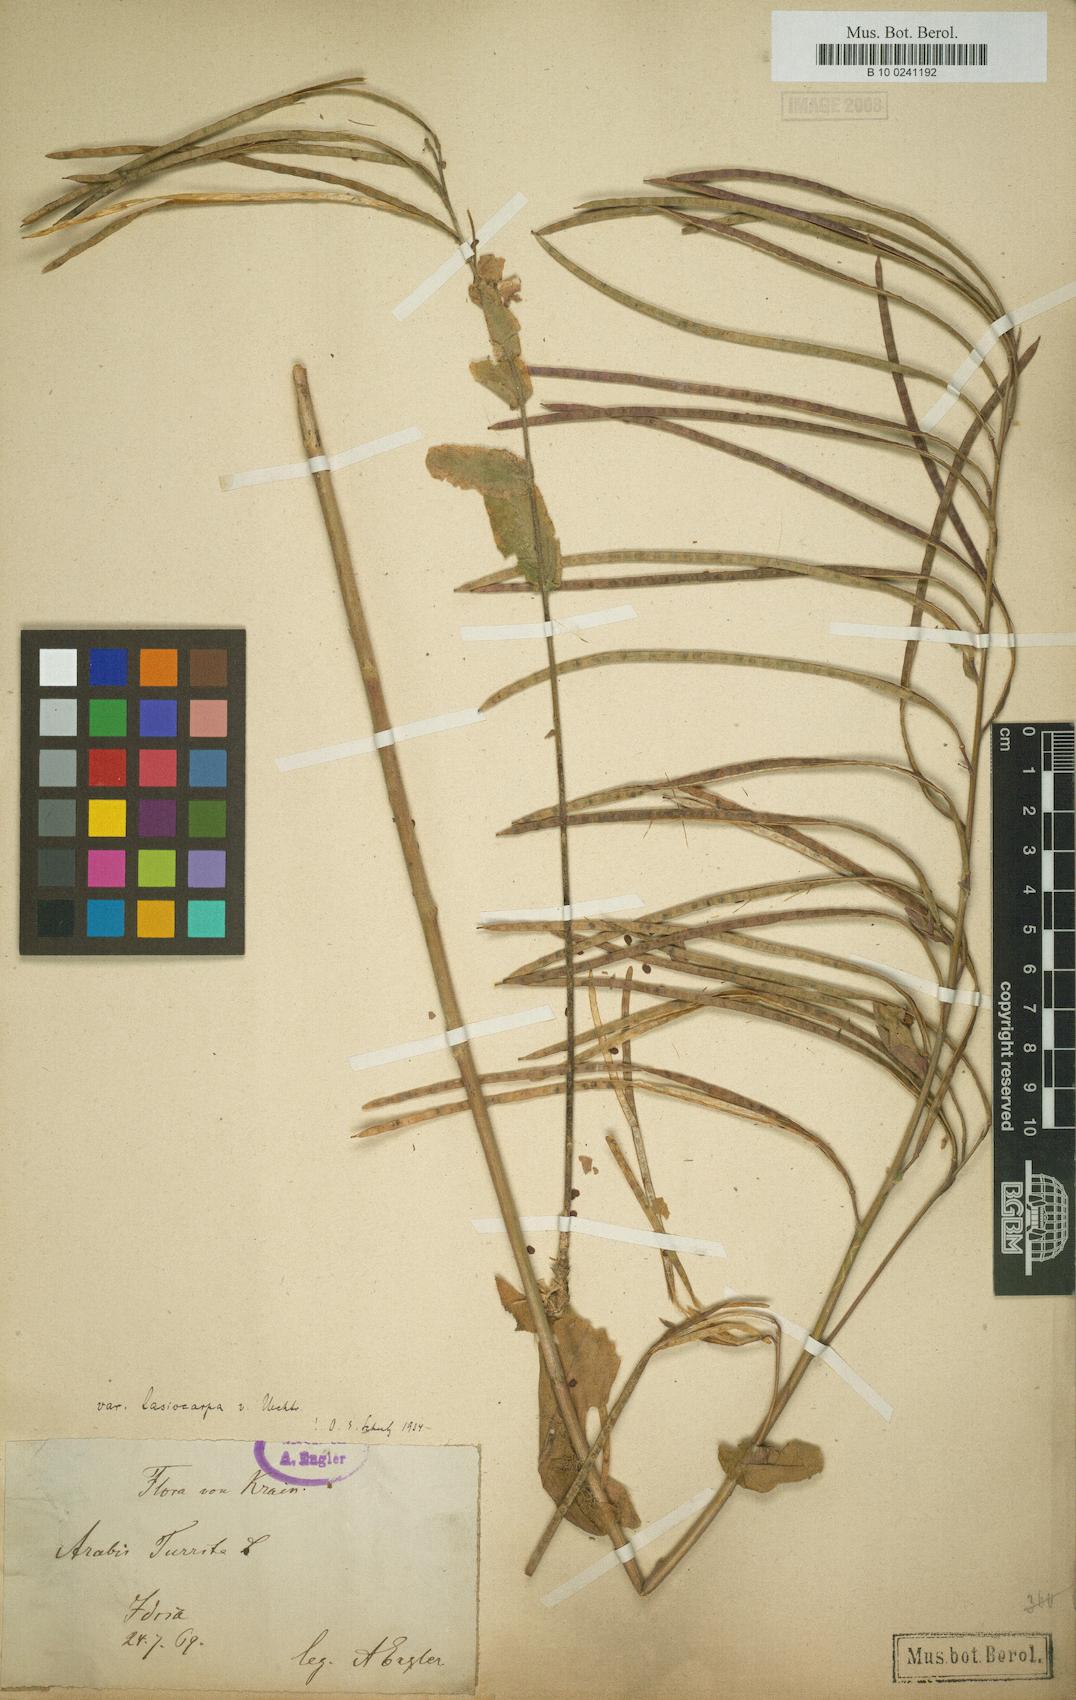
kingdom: Plantae
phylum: Tracheophyta
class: Magnoliopsida
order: Brassicales
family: Brassicaceae
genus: Pseudoturritis
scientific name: Pseudoturritis turrita
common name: Tower cress
